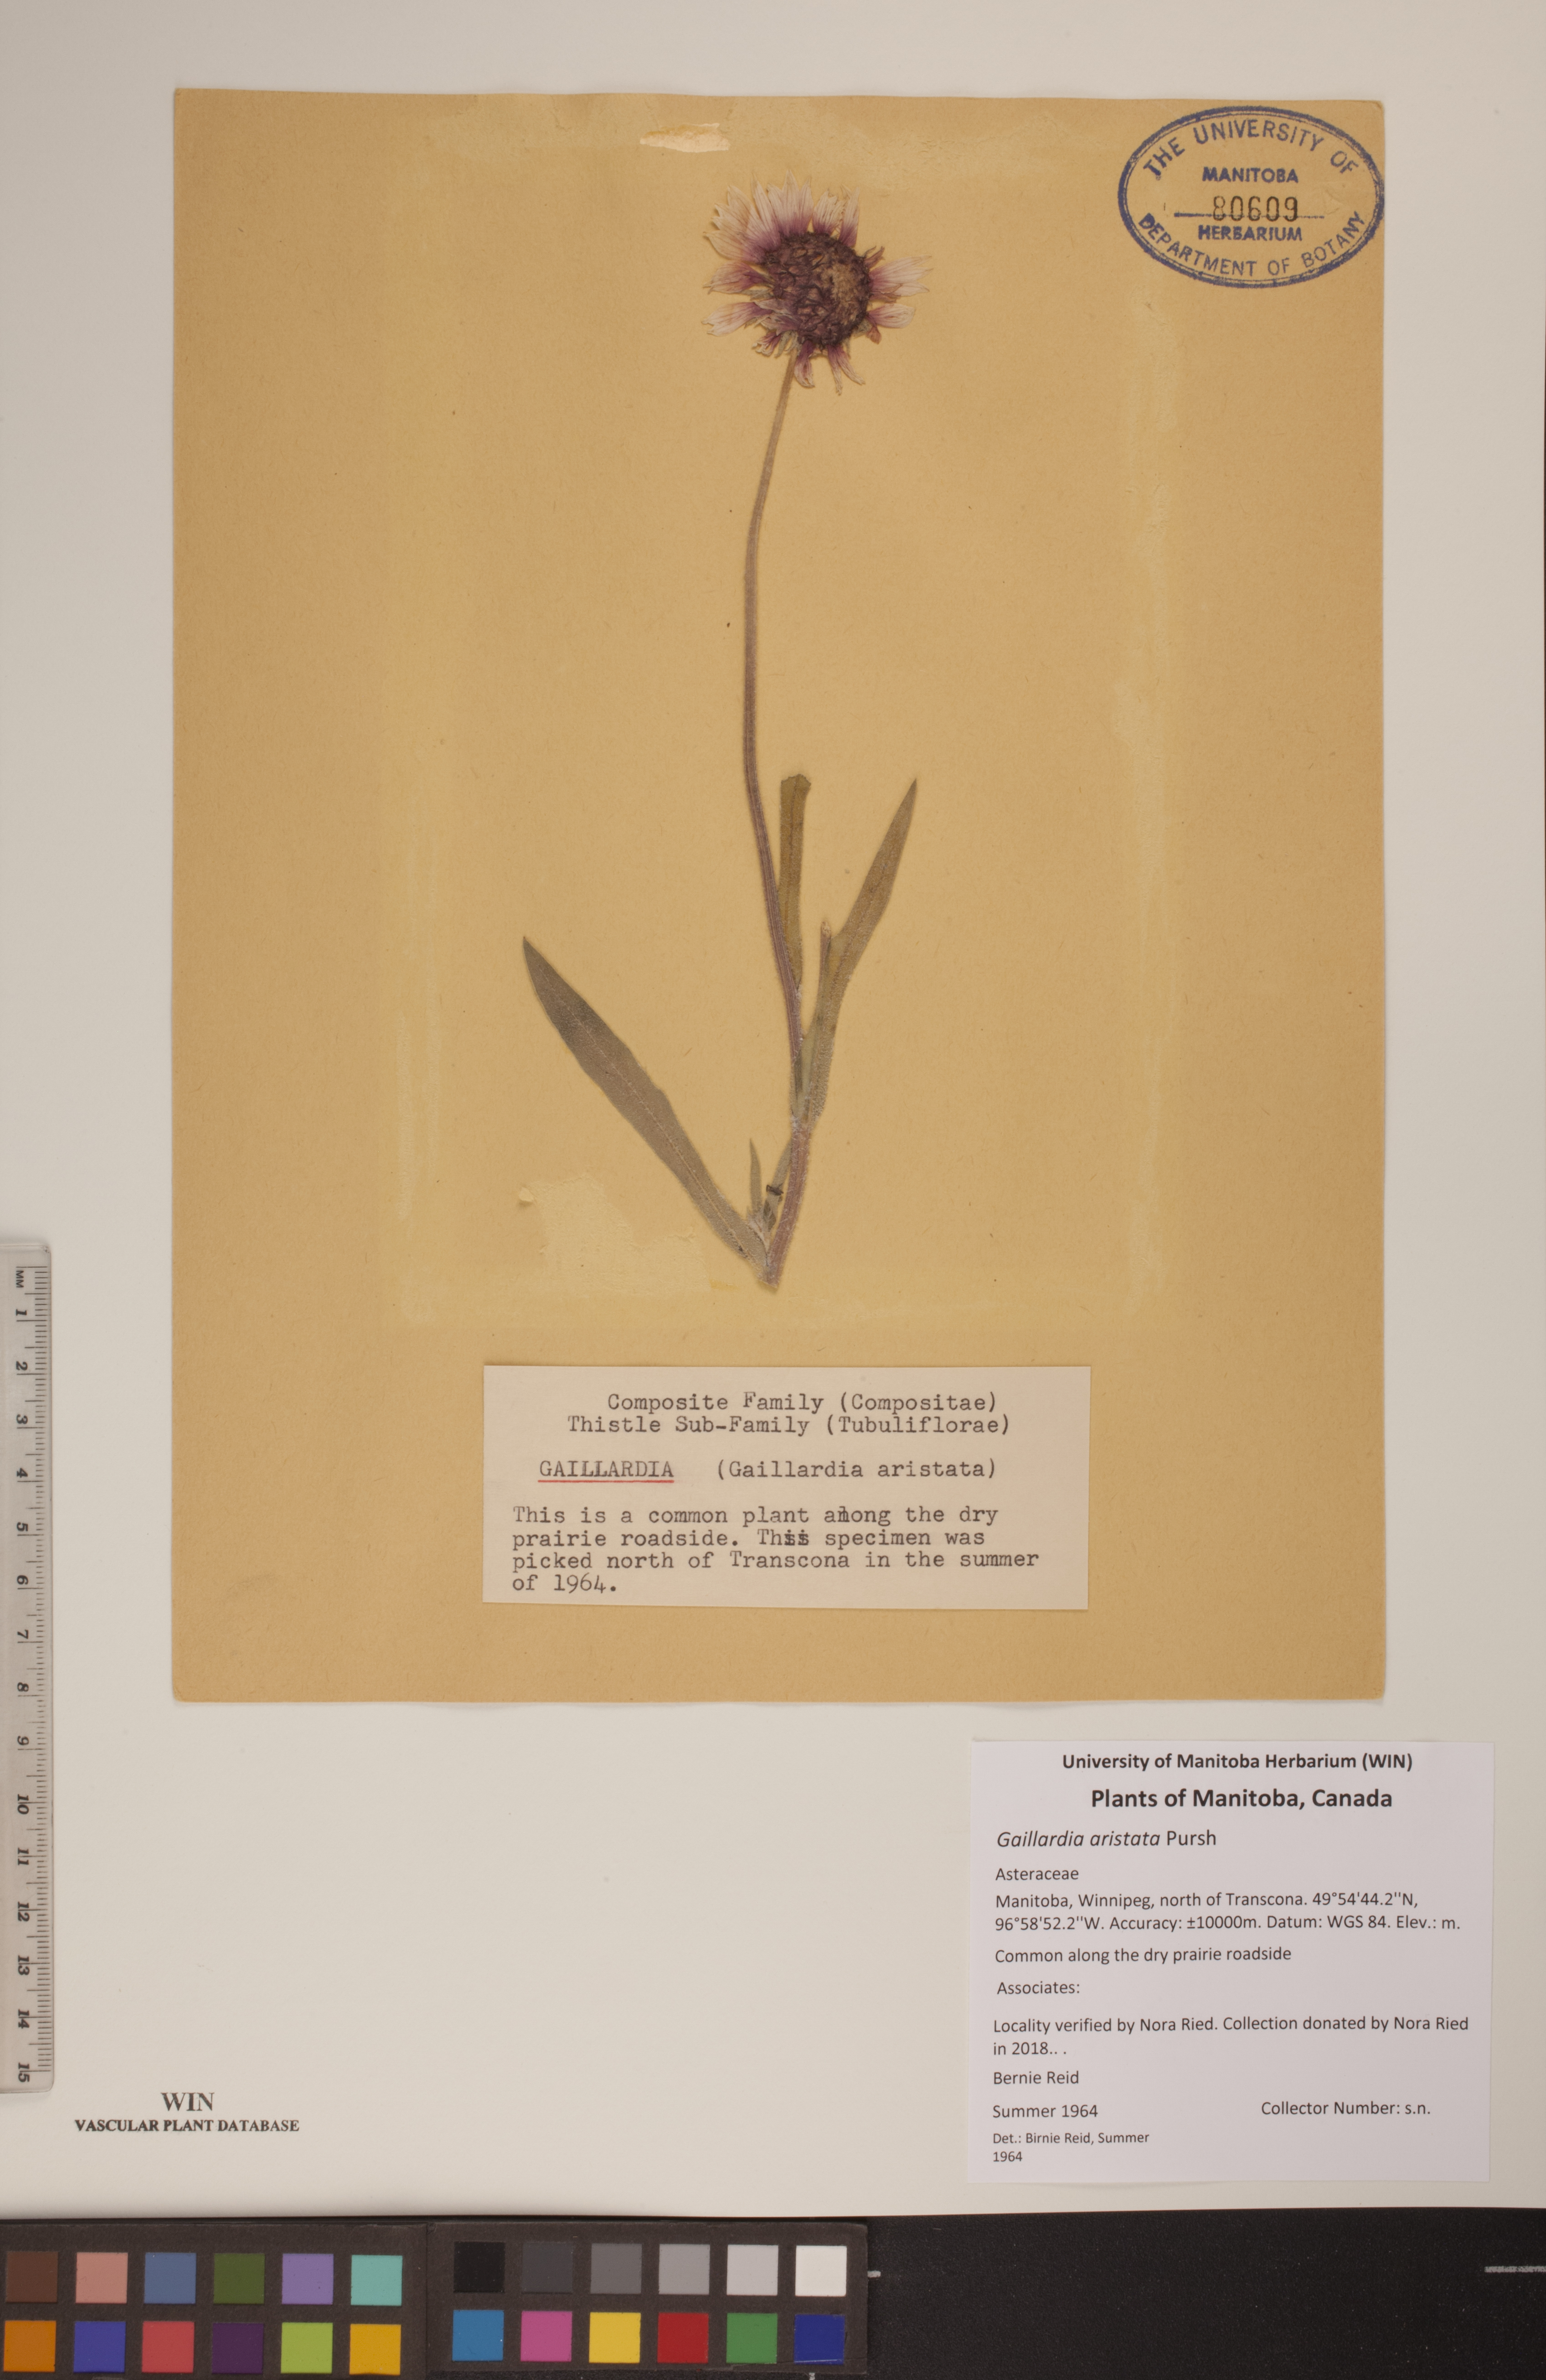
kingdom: Plantae
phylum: Tracheophyta
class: Magnoliopsida
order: Asterales
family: Asteraceae
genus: Gaillardia
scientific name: Gaillardia aristata
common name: Blanket-flower
